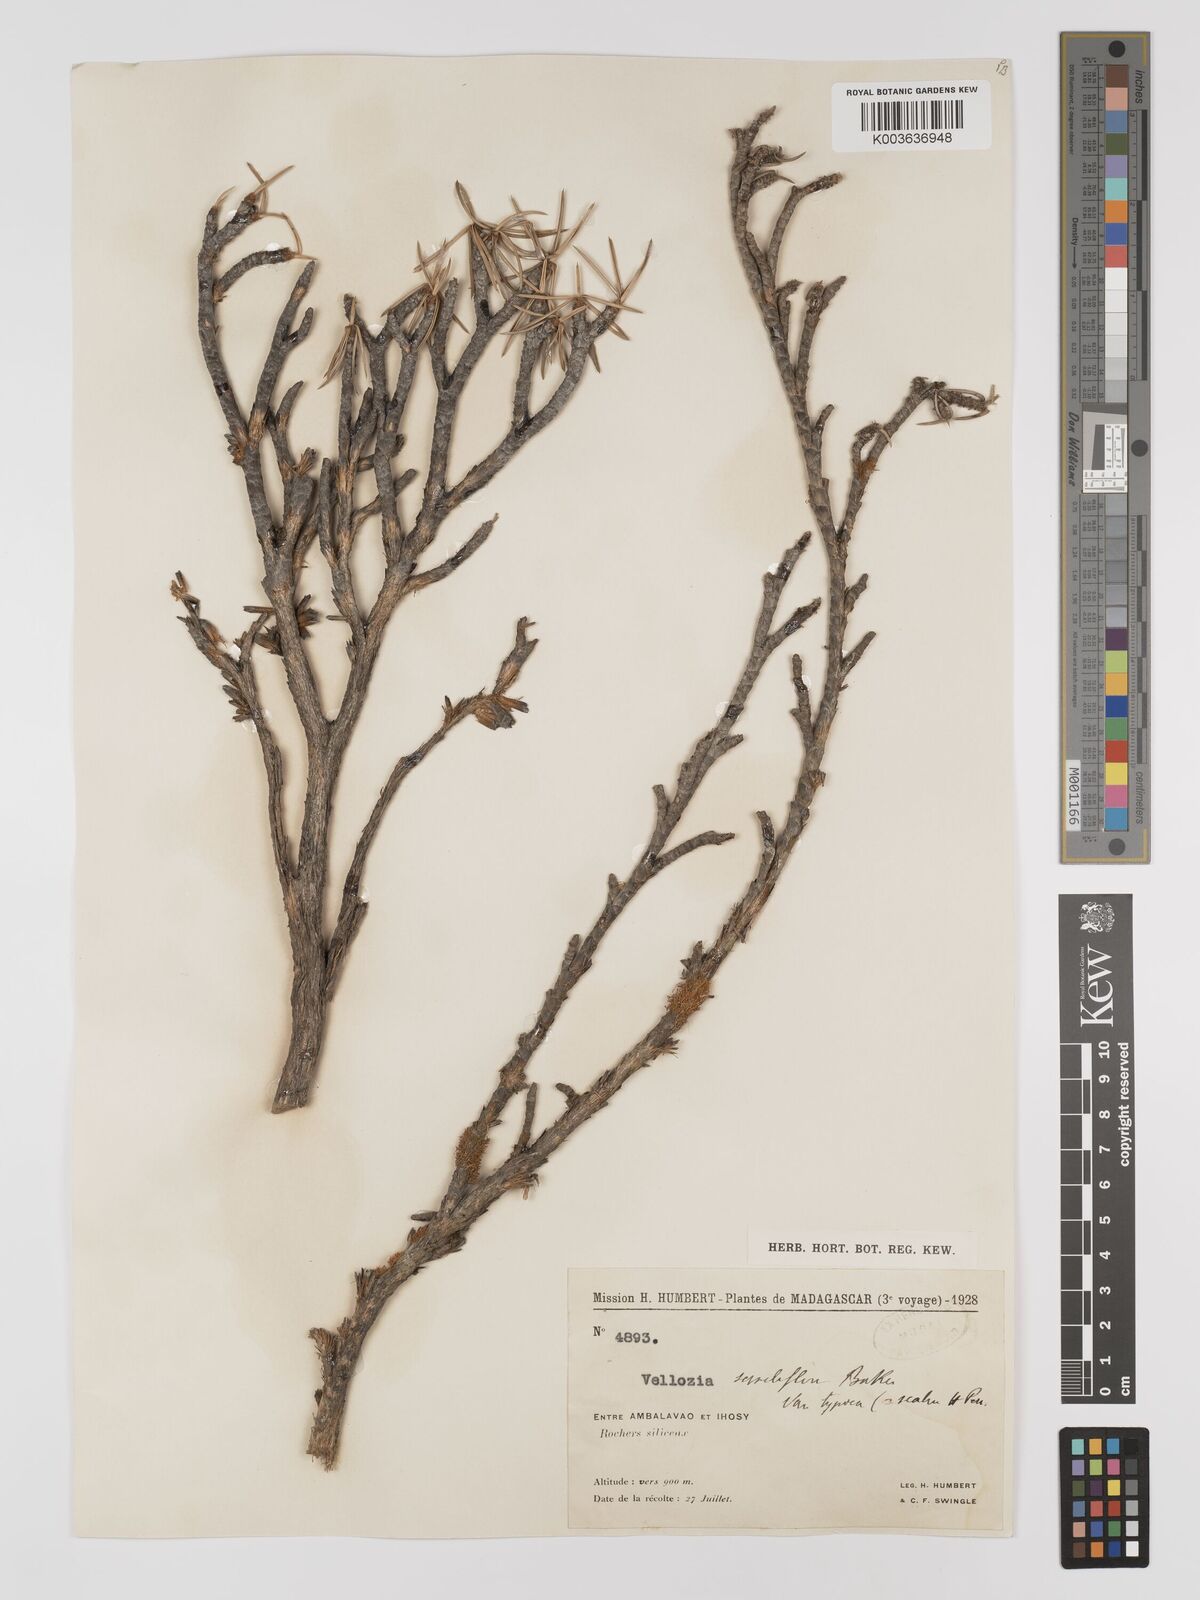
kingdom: Plantae
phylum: Tracheophyta
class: Liliopsida
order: Pandanales
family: Velloziaceae
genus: Xerophyta
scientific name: Xerophyta pinifolia
